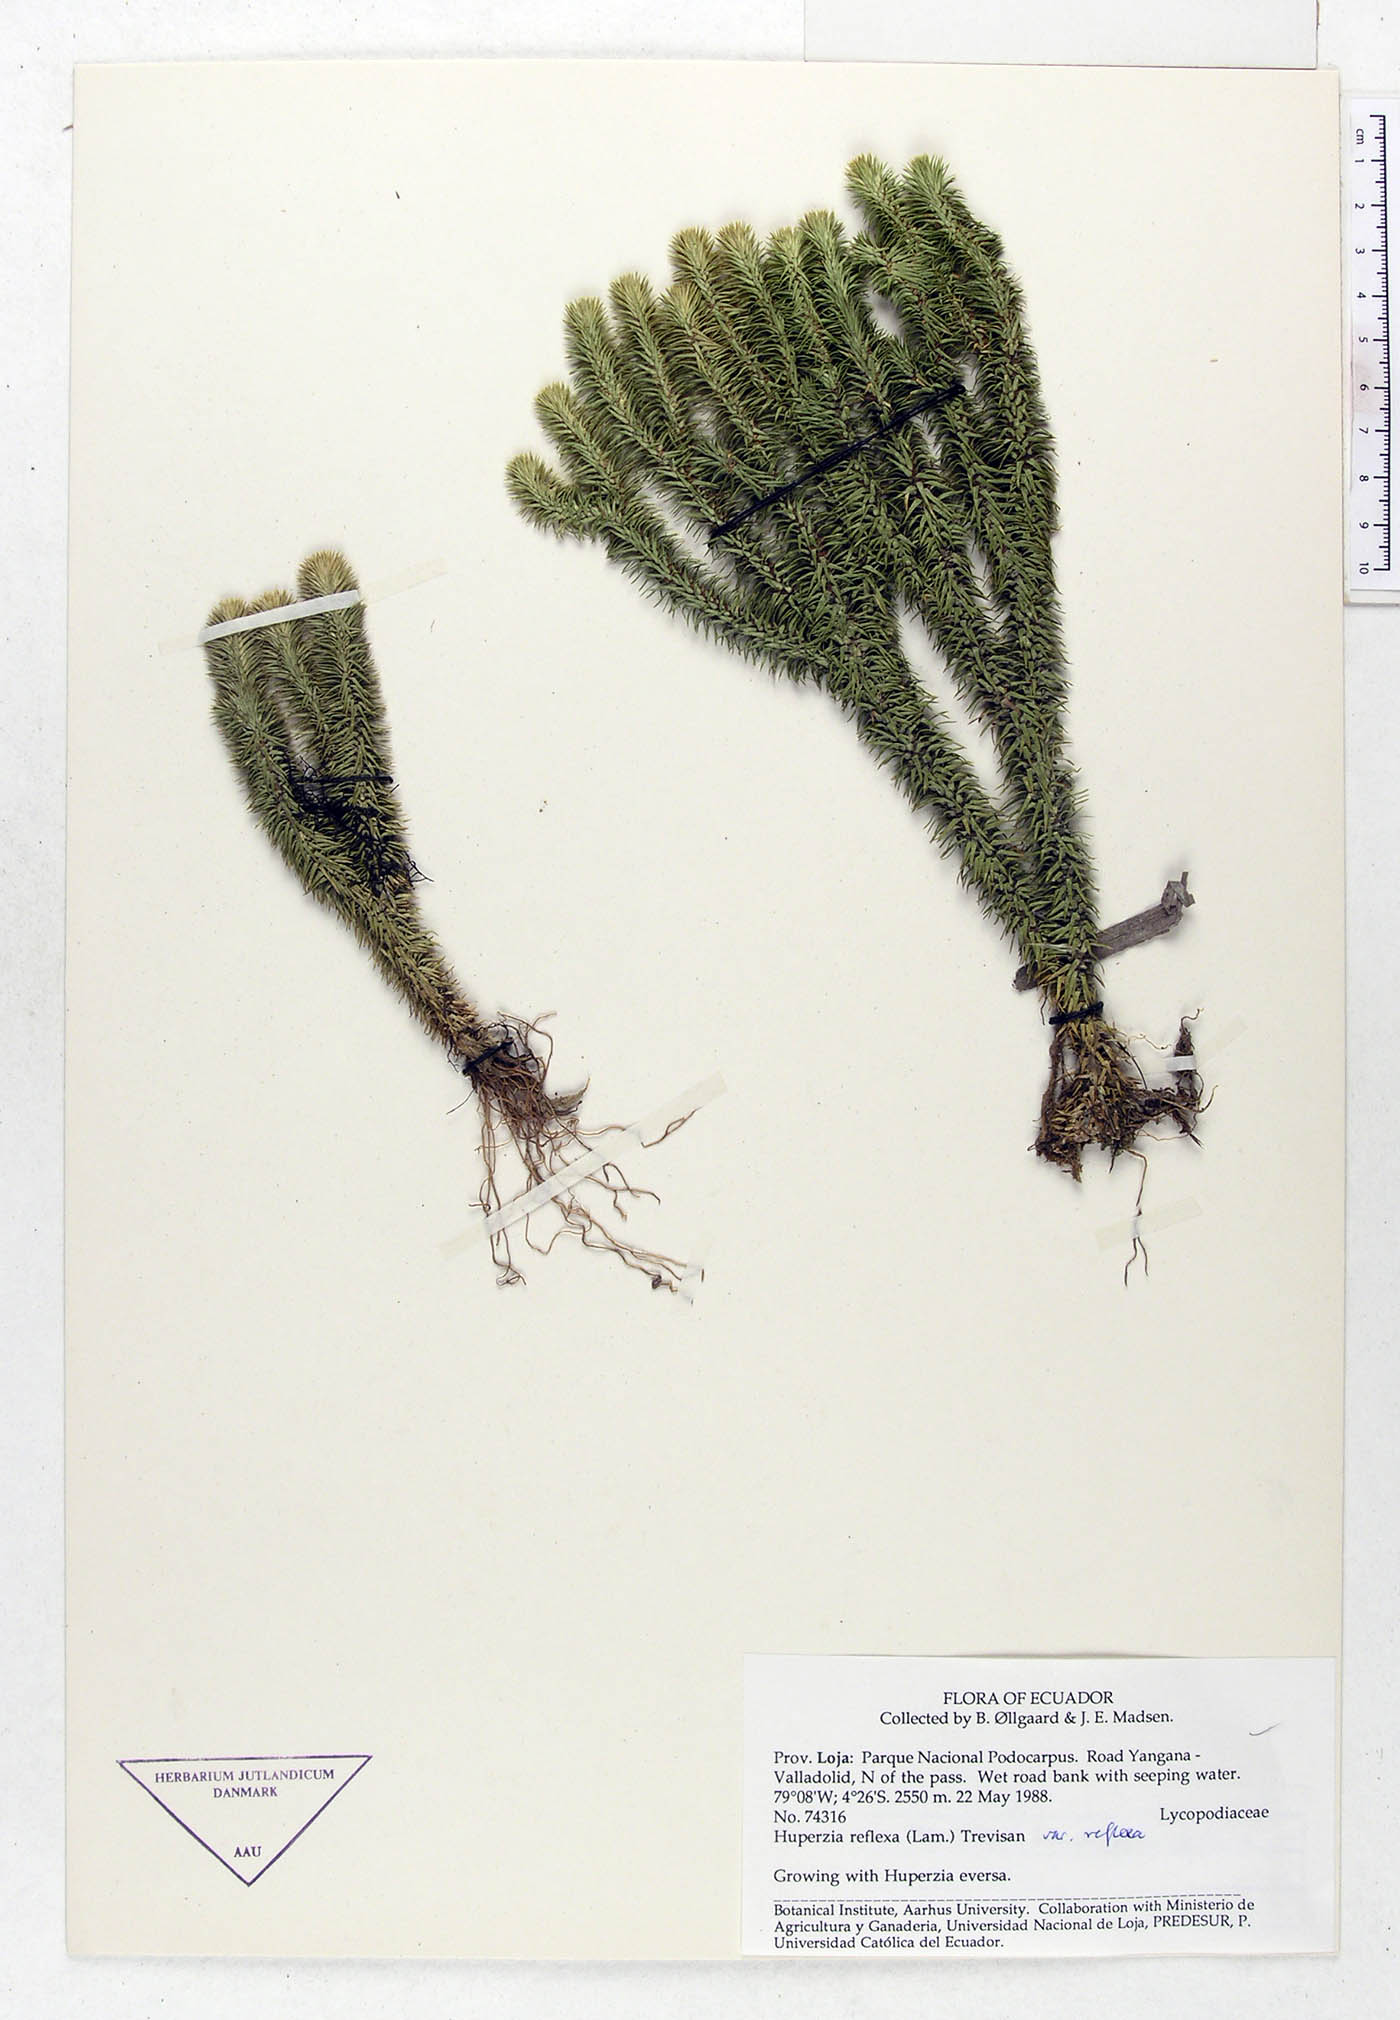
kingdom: Plantae
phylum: Tracheophyta
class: Lycopodiopsida
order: Lycopodiales
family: Lycopodiaceae
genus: Phlegmariurus
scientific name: Phlegmariurus reflexus
